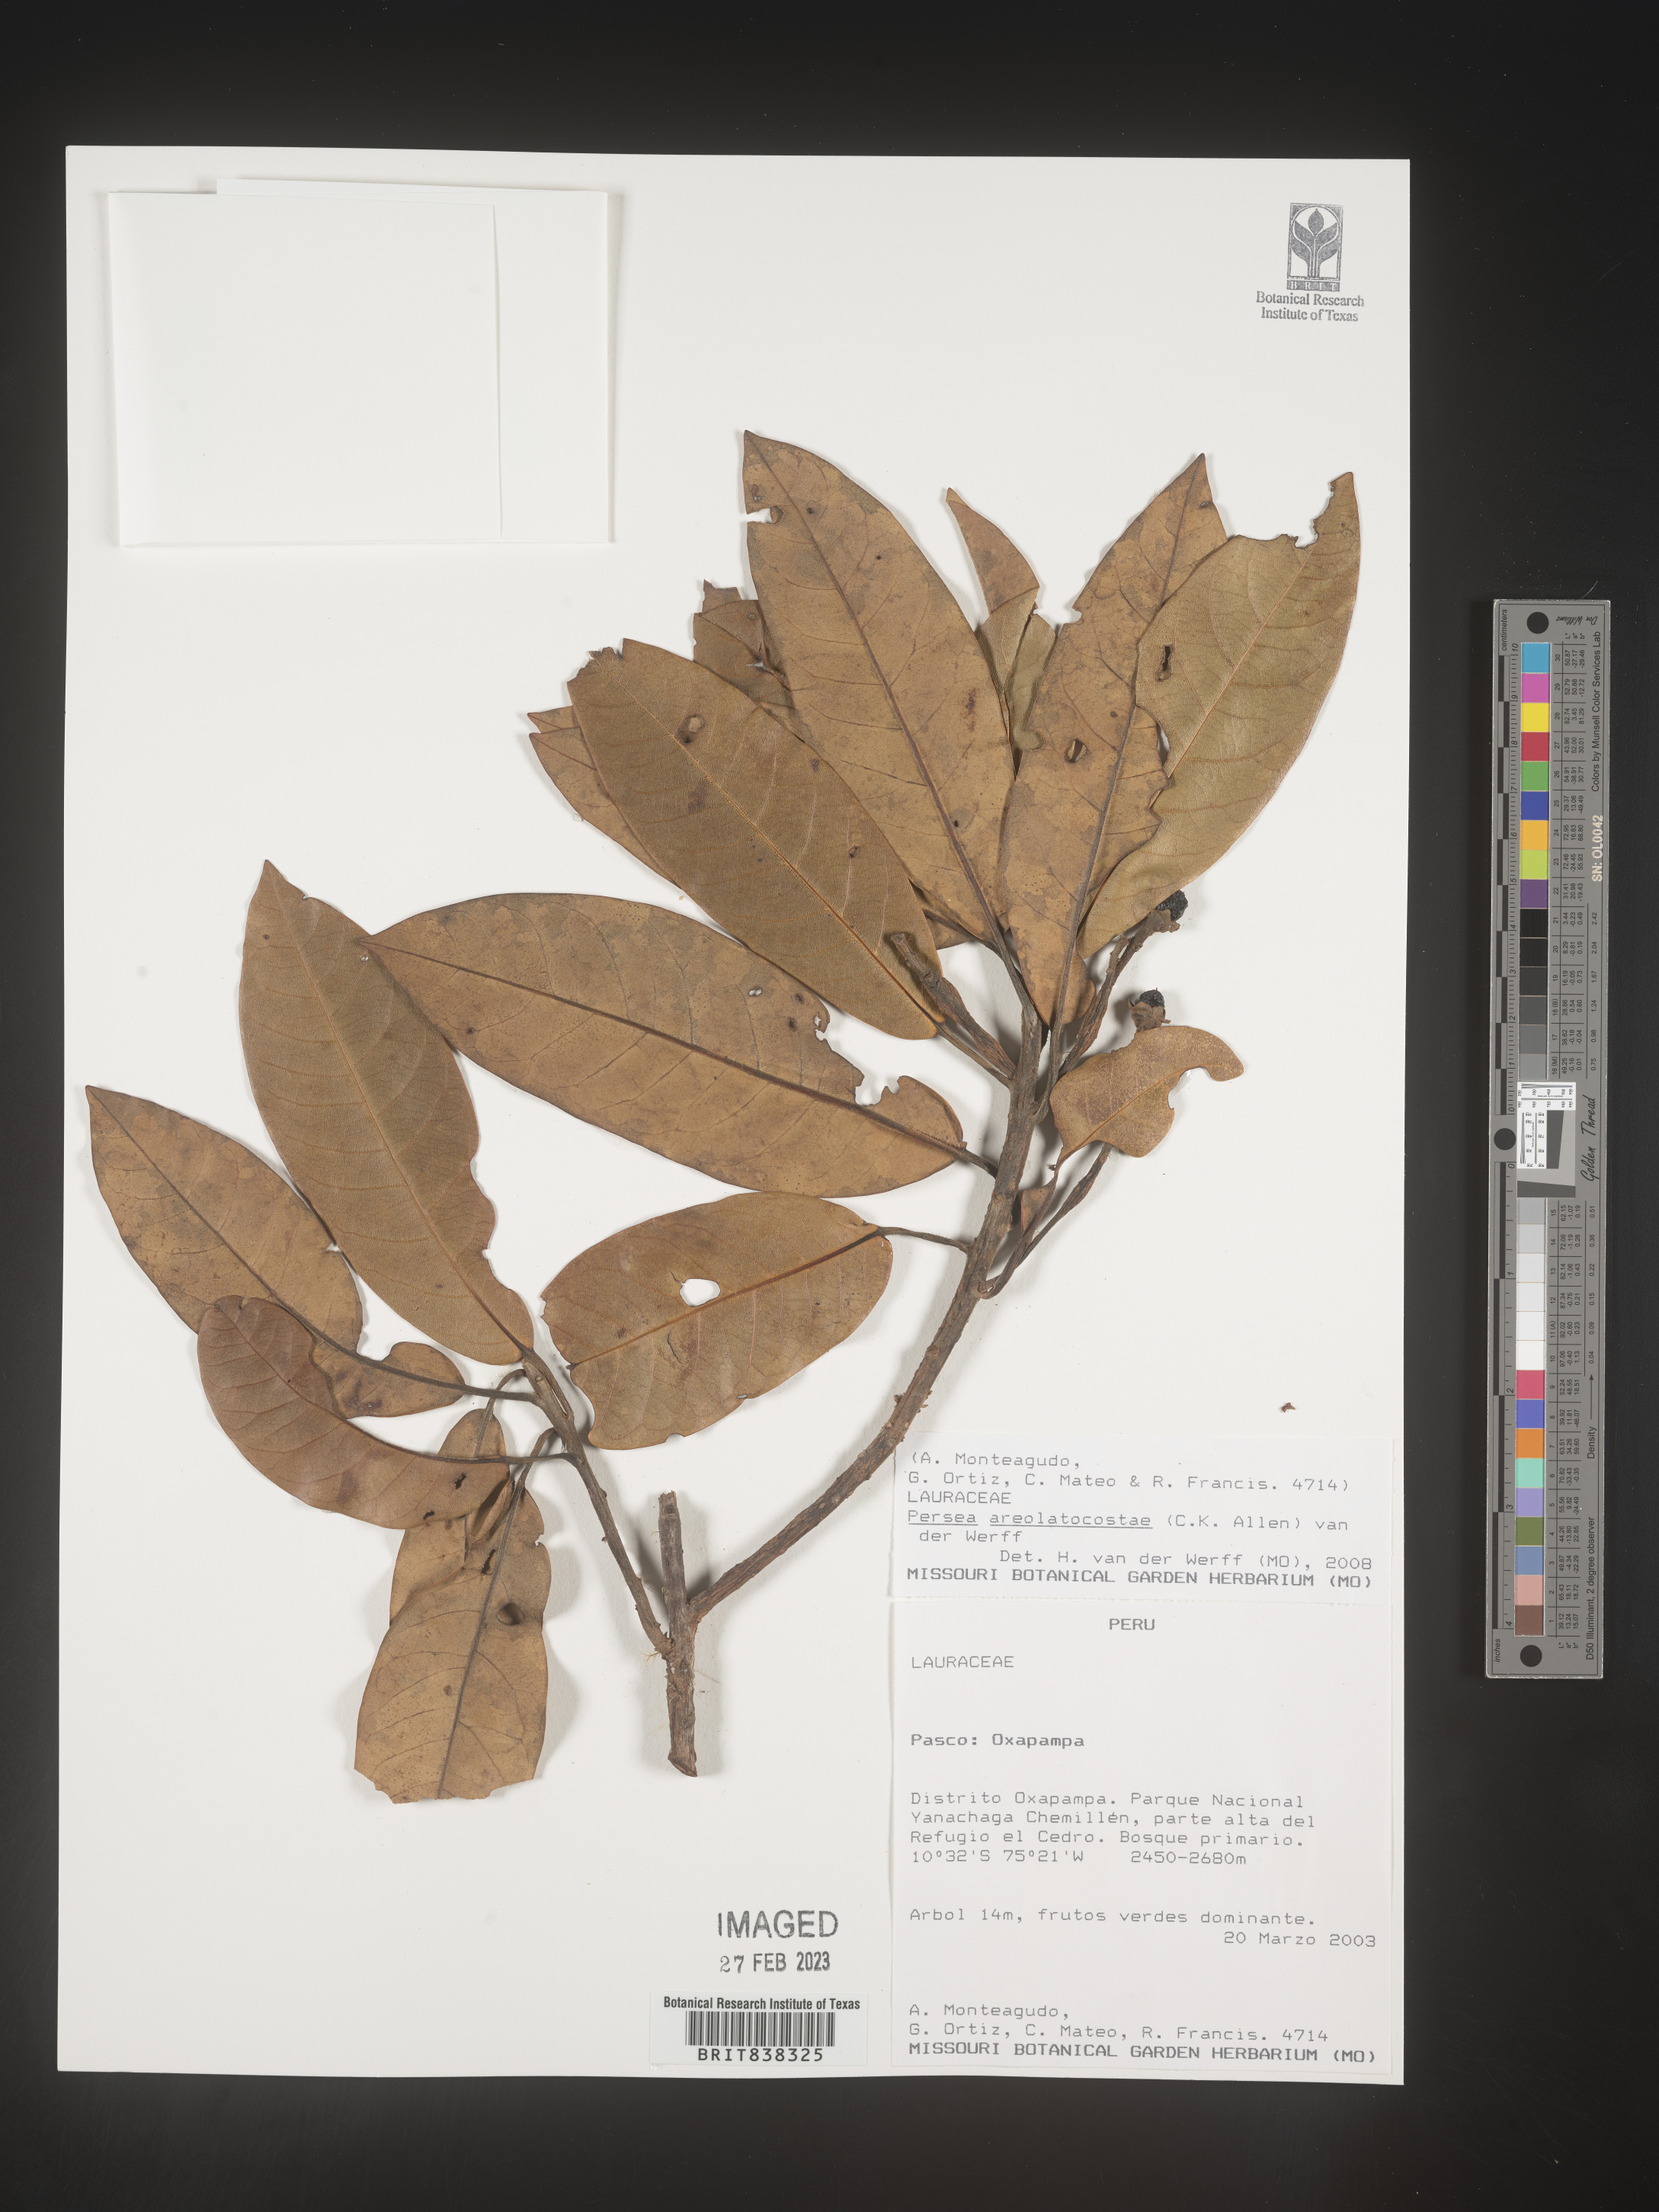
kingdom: Plantae
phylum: Tracheophyta
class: Magnoliopsida
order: Laurales
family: Lauraceae
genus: Persea
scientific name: Persea areolatocostae
